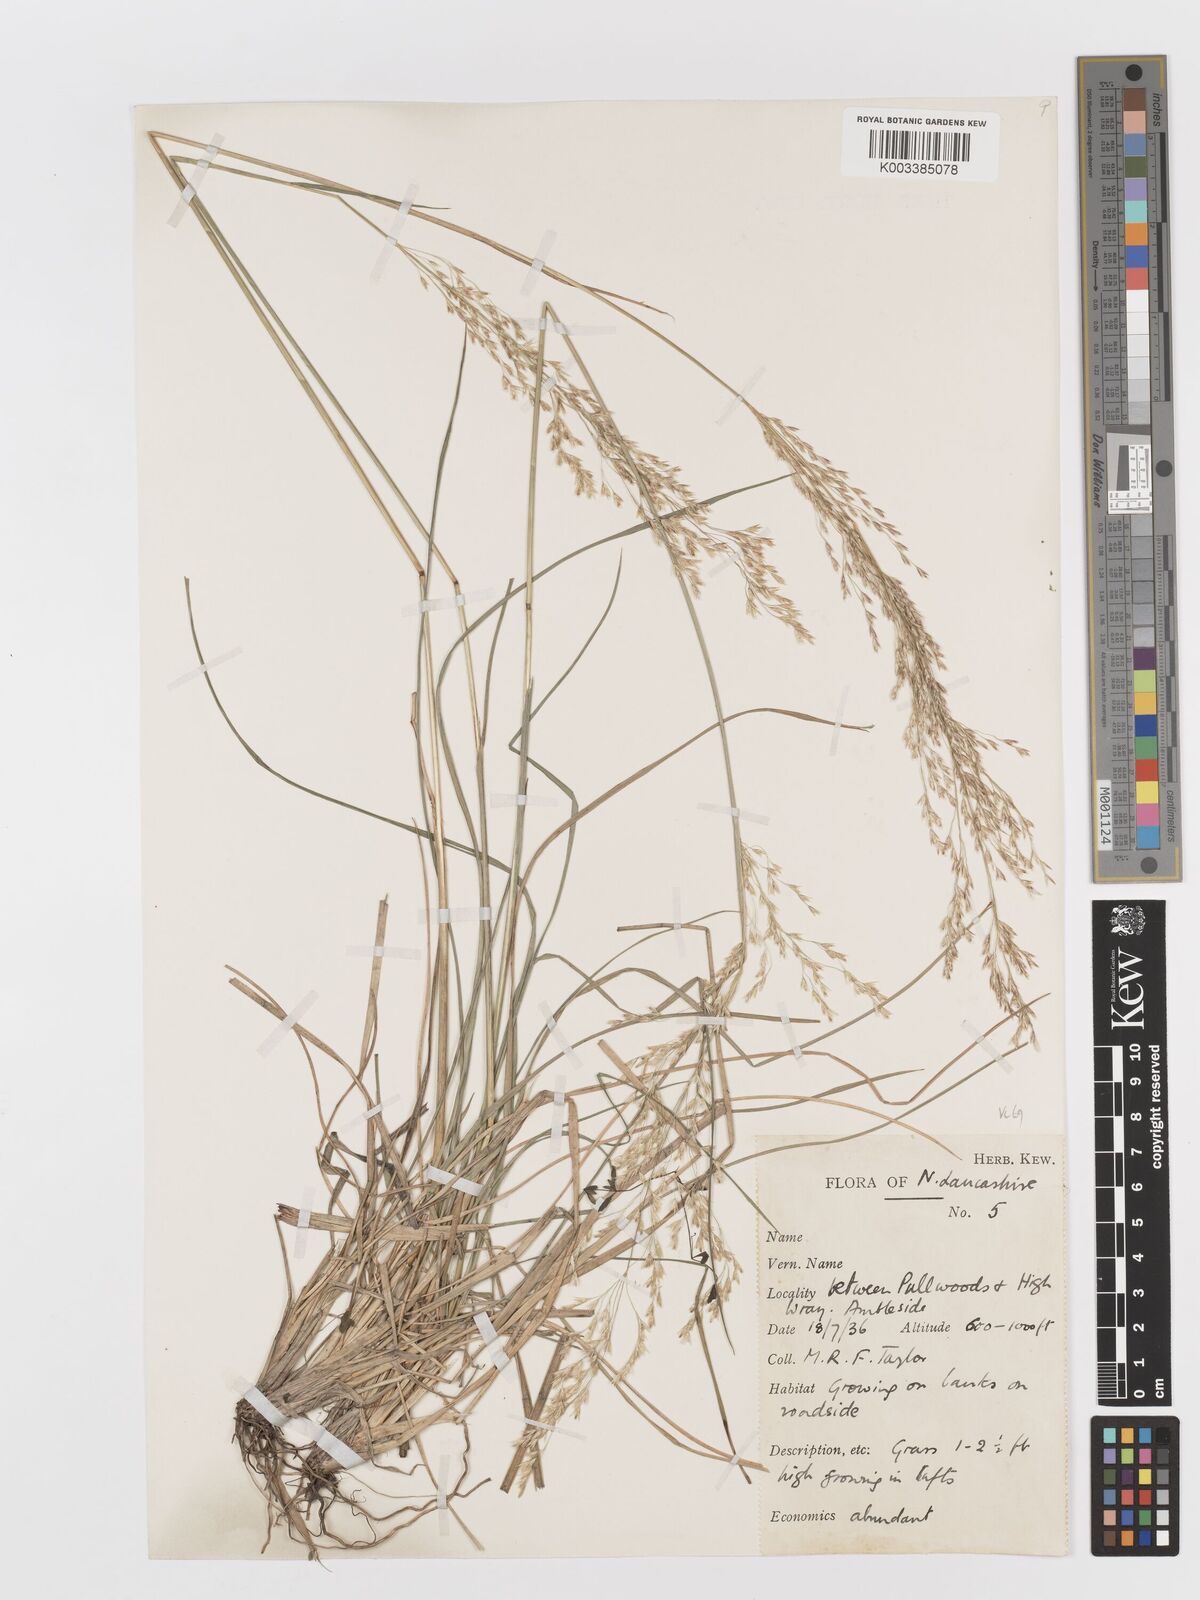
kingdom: Plantae
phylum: Tracheophyta
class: Liliopsida
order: Poales
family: Poaceae
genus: Deschampsia
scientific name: Deschampsia cespitosa
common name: Tufted hair-grass
